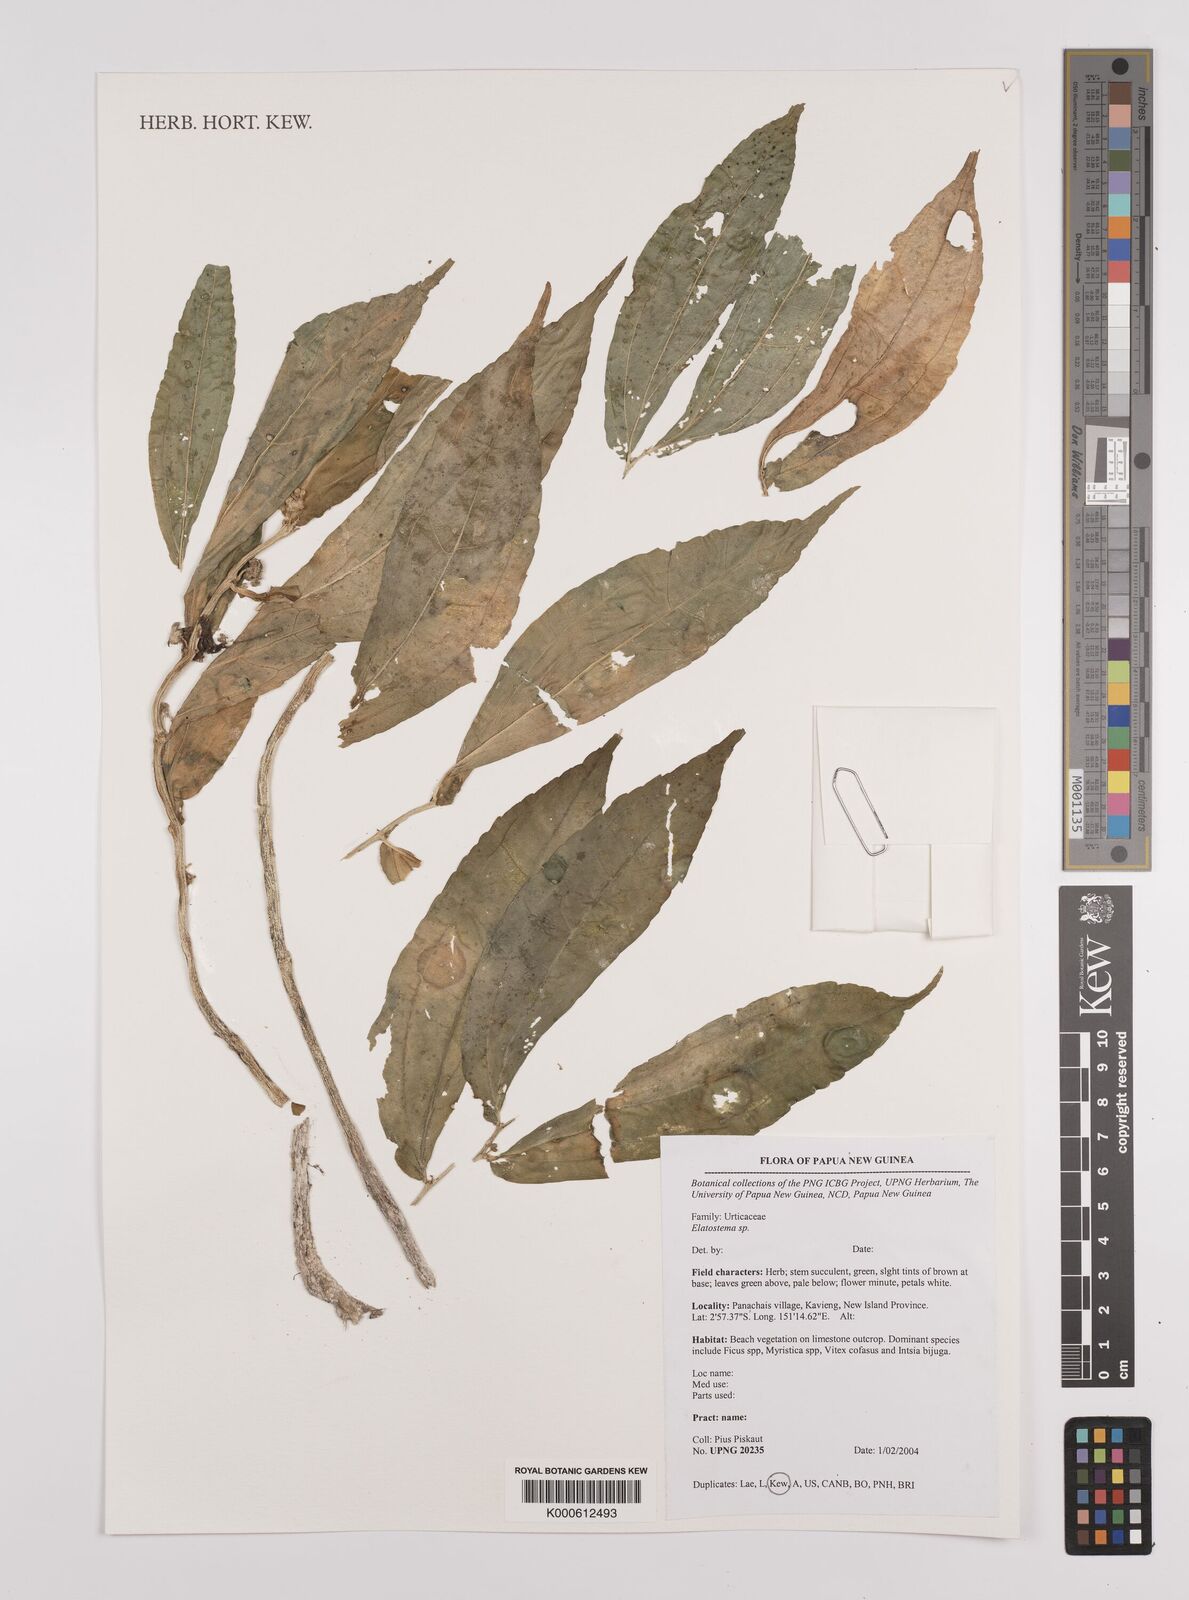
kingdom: Plantae
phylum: Tracheophyta
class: Magnoliopsida
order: Rosales
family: Urticaceae
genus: Elatostema
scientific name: Elatostema
